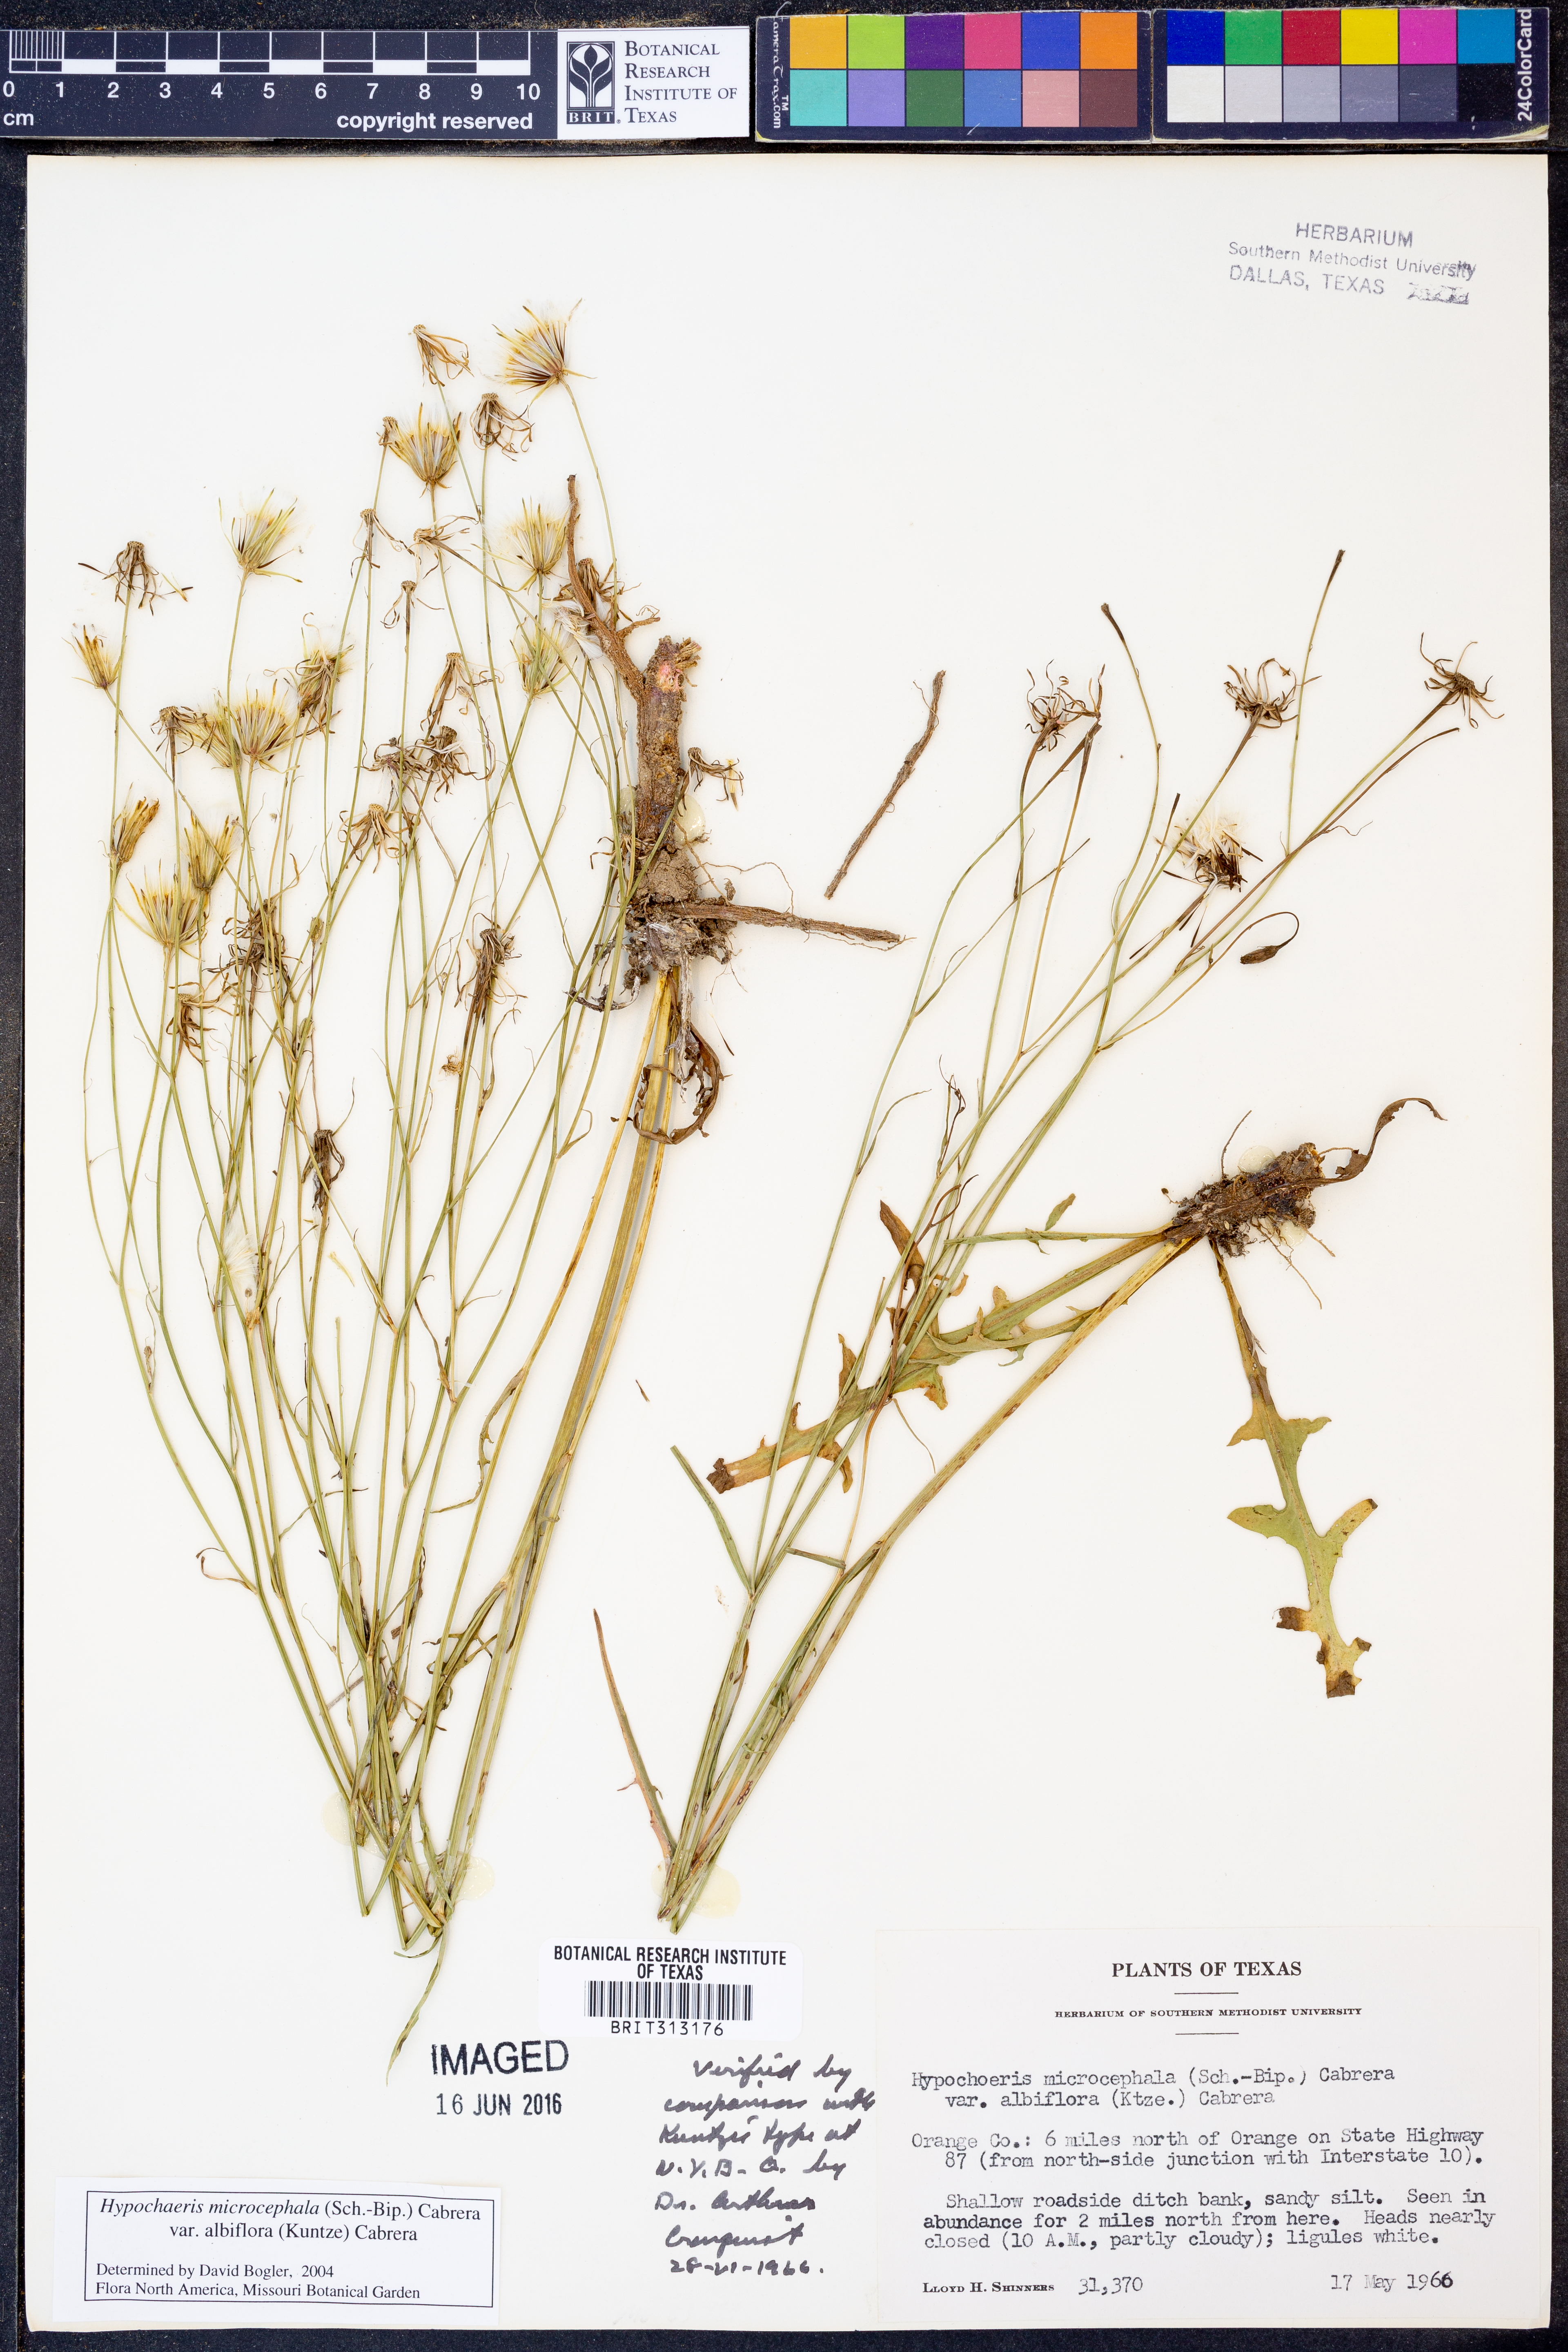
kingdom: Plantae
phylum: Tracheophyta
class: Magnoliopsida
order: Asterales
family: Asteraceae
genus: Hypochaeris
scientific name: Hypochaeris albiflora
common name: White flatweed
